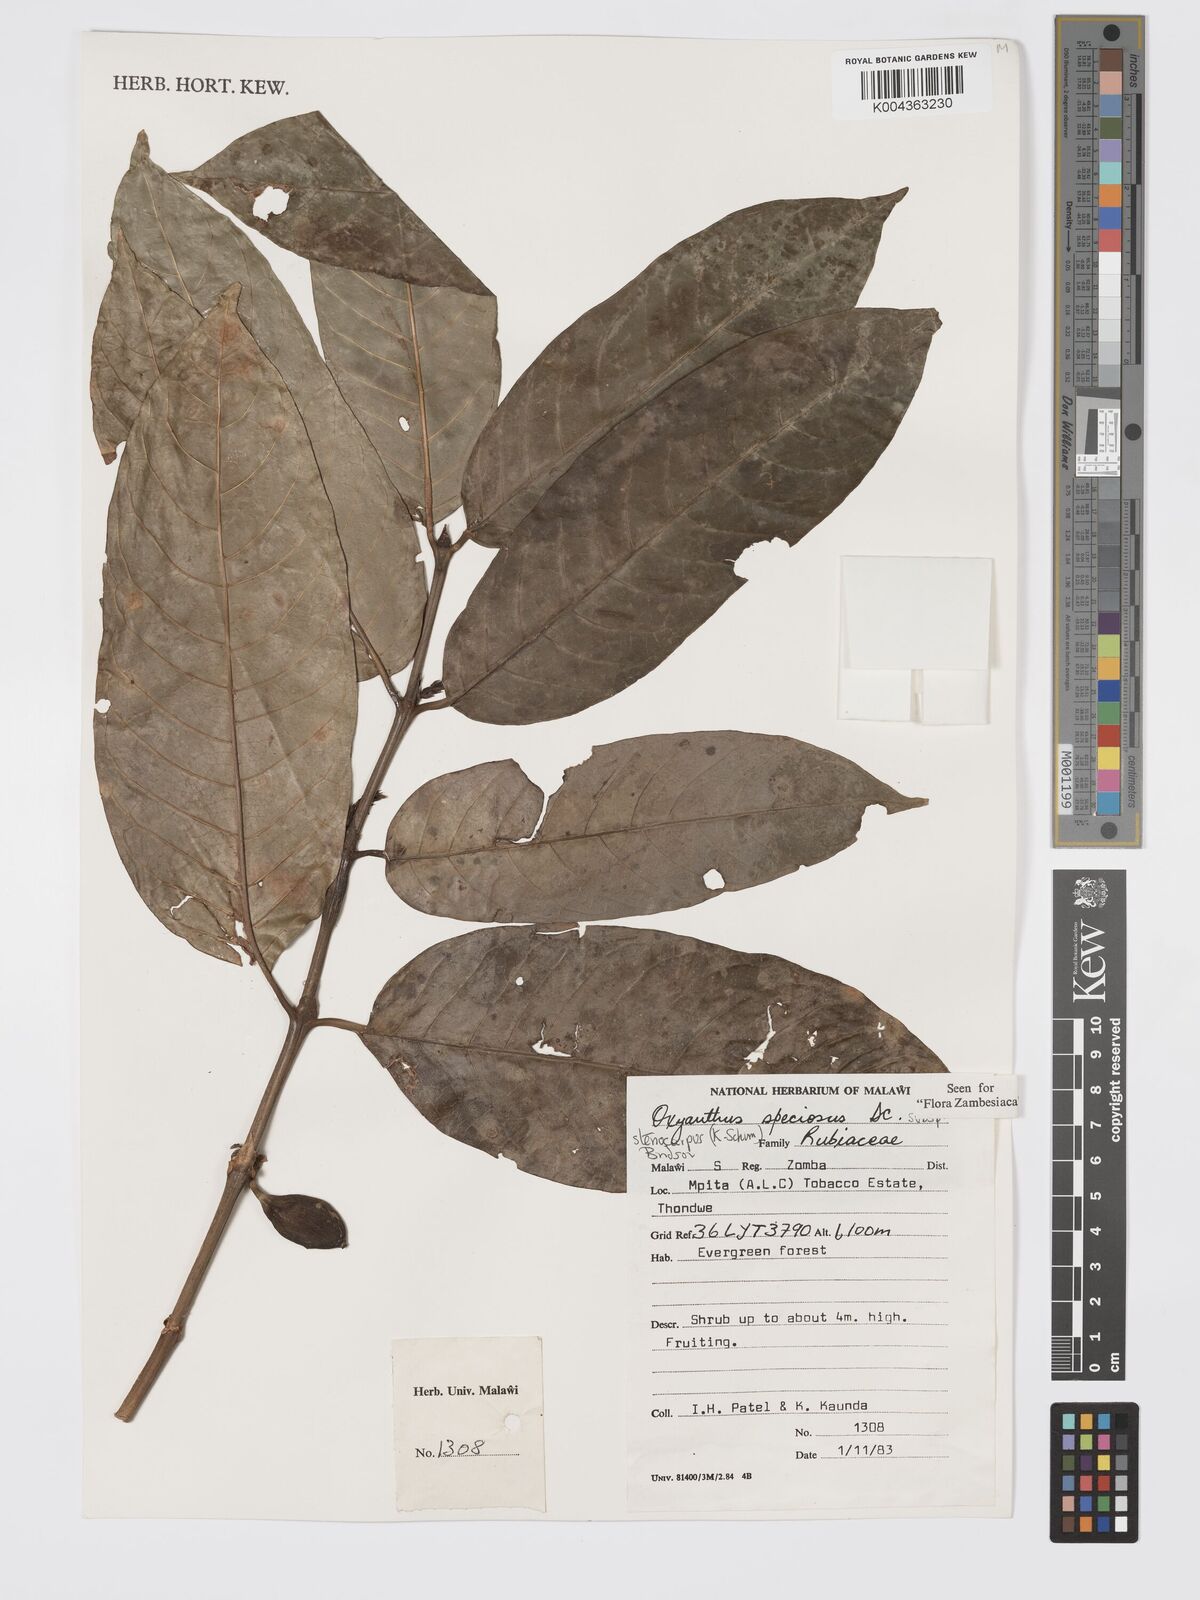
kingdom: Plantae
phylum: Tracheophyta
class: Magnoliopsida
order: Gentianales
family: Rubiaceae
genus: Oxyanthus
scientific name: Oxyanthus speciosus
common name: Whipstick loquat
